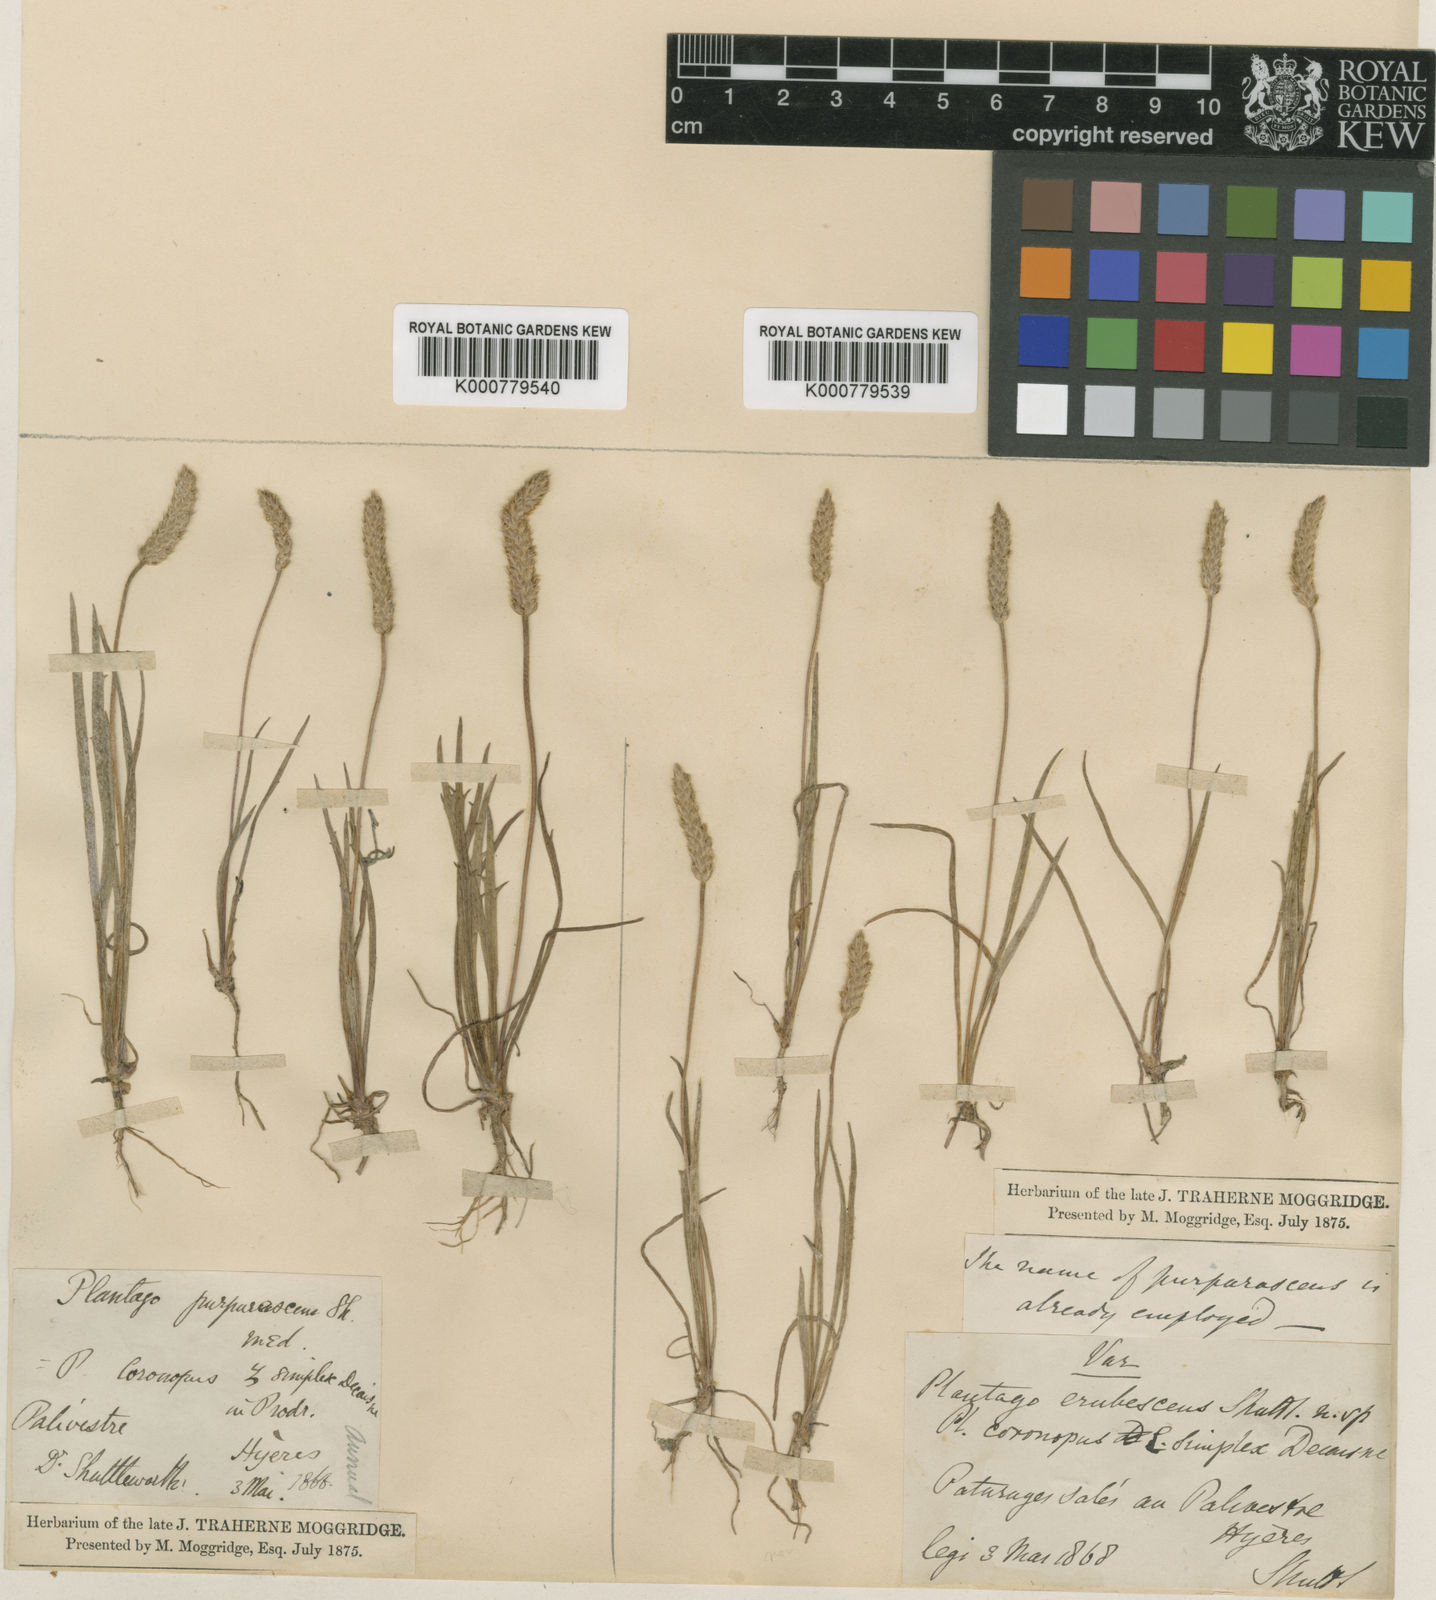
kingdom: Plantae
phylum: Tracheophyta
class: Magnoliopsida
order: Lamiales
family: Plantaginaceae
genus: Plantago
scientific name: Plantago coronopus
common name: Buck's-horn plantain
